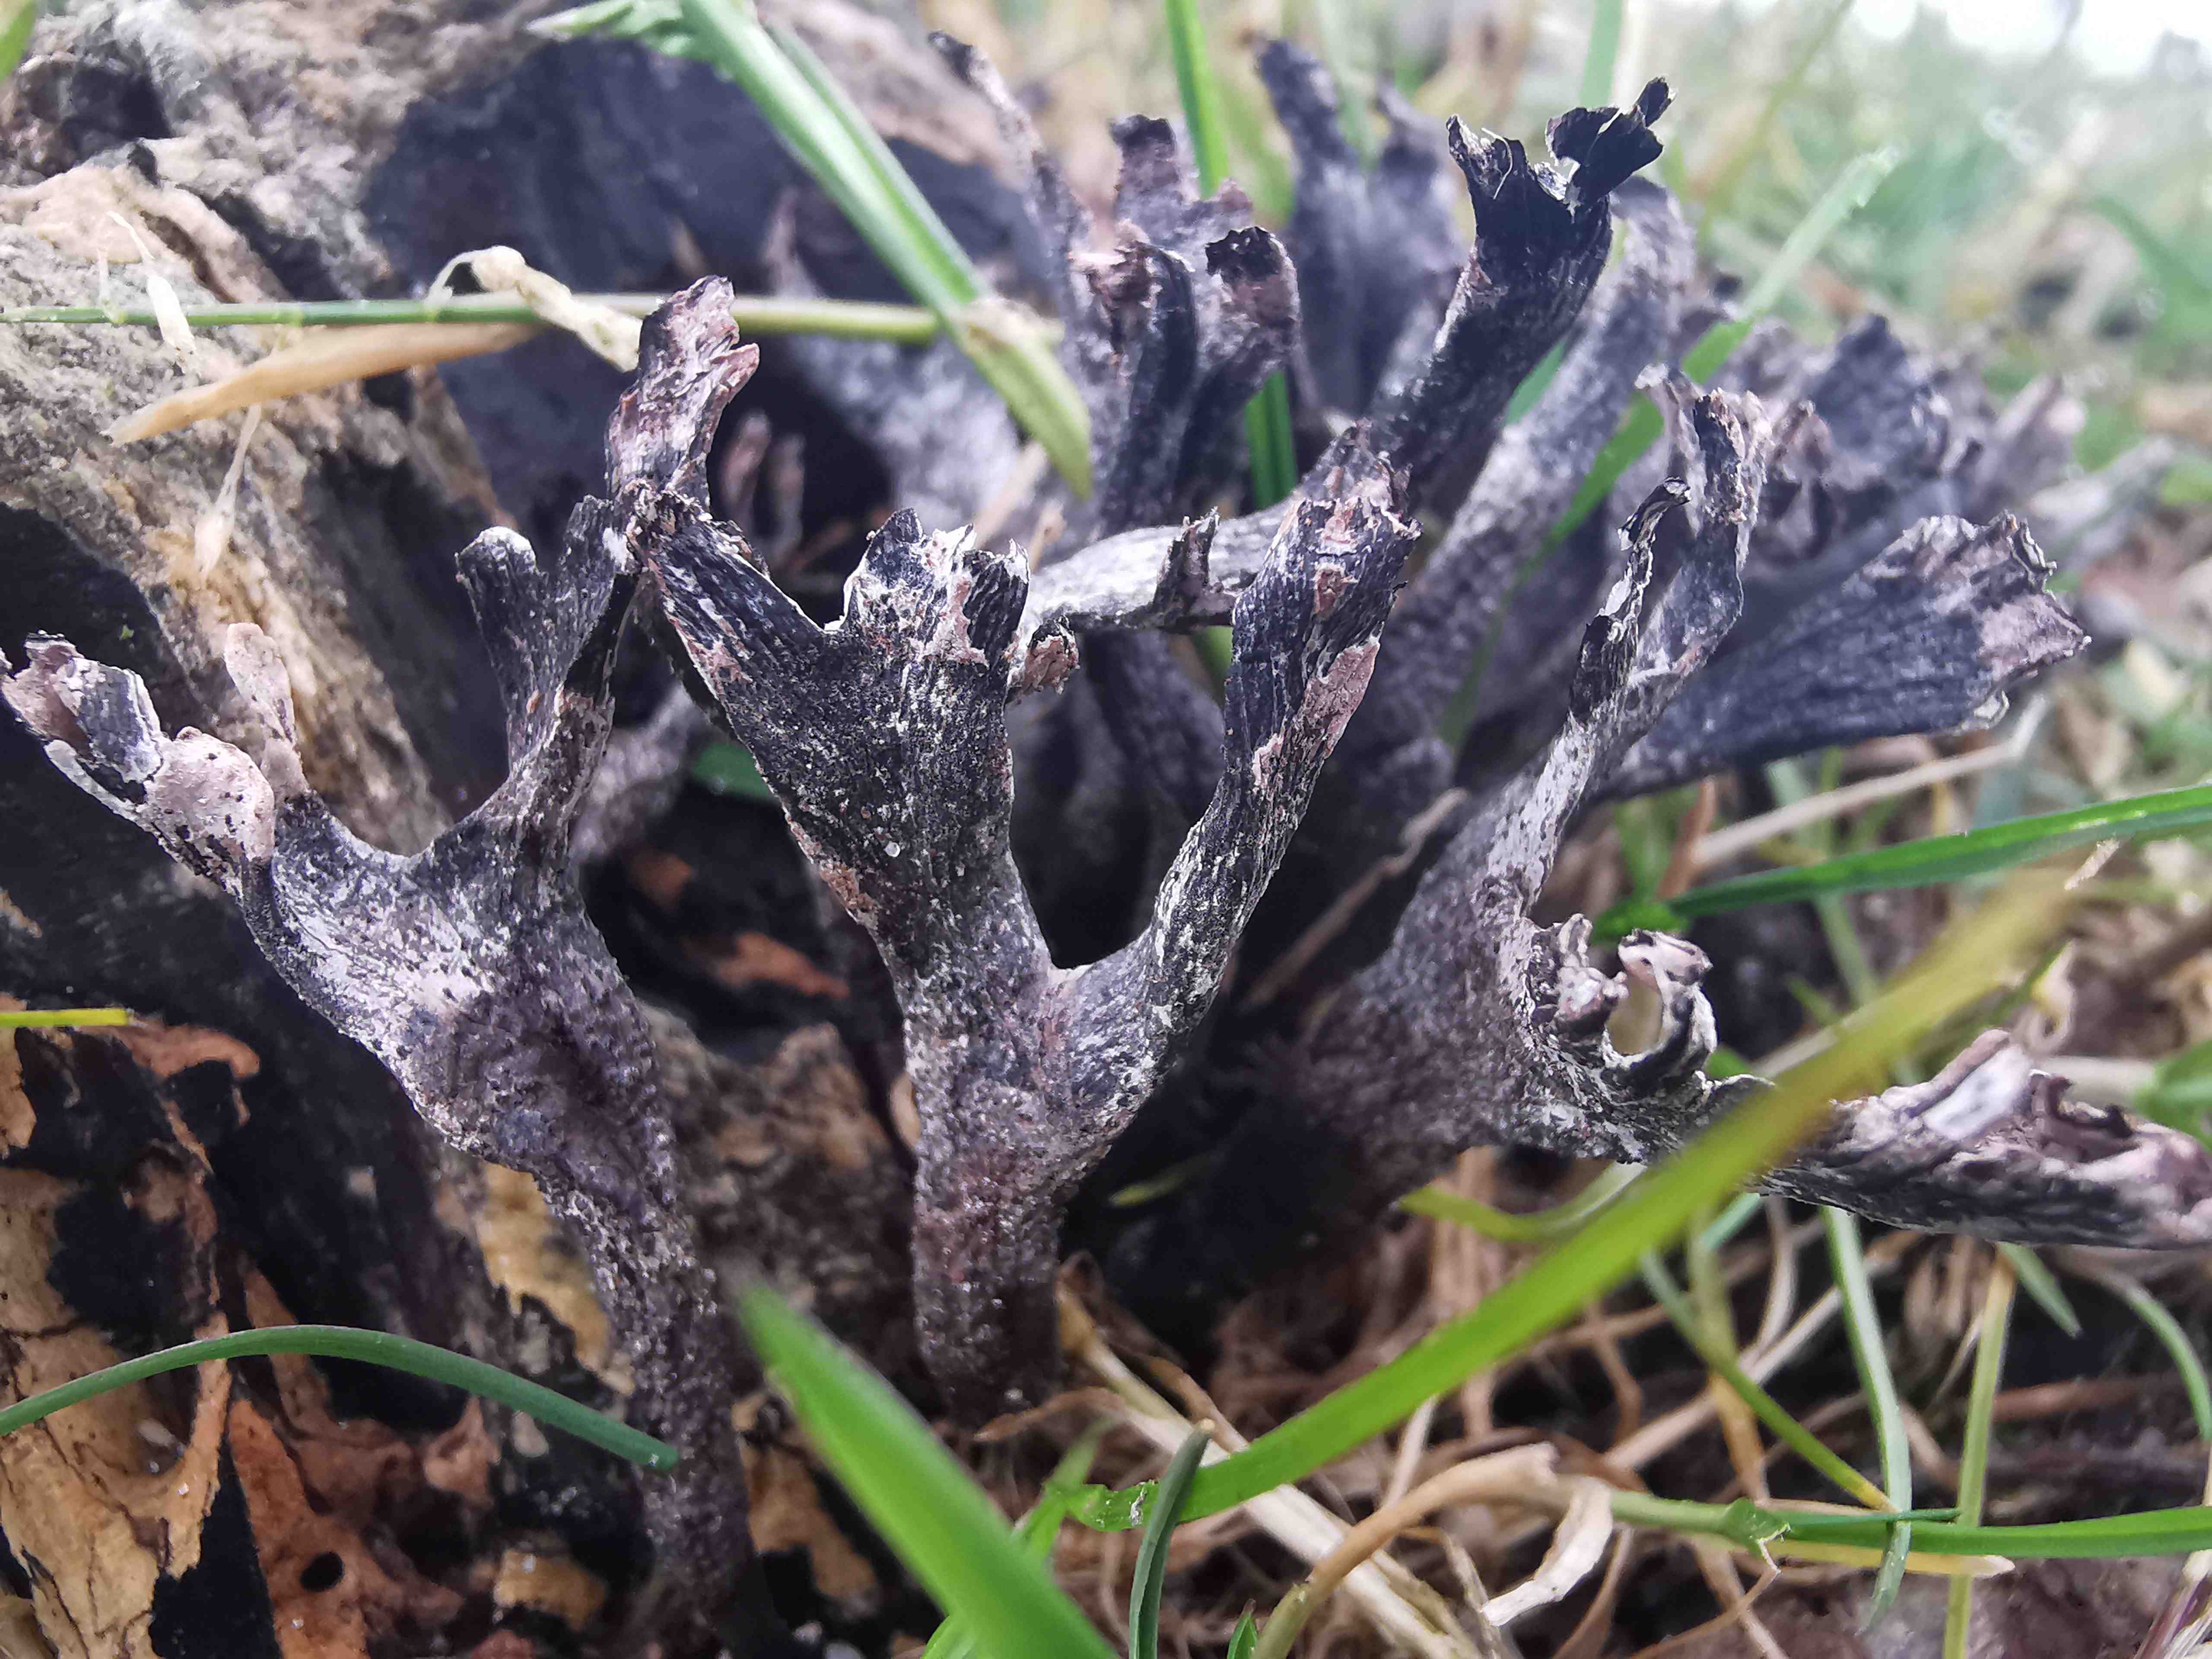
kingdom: Fungi
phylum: Ascomycota
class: Sordariomycetes
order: Xylariales
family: Xylariaceae
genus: Xylaria
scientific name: Xylaria hypoxylon
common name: grenet stødsvamp
